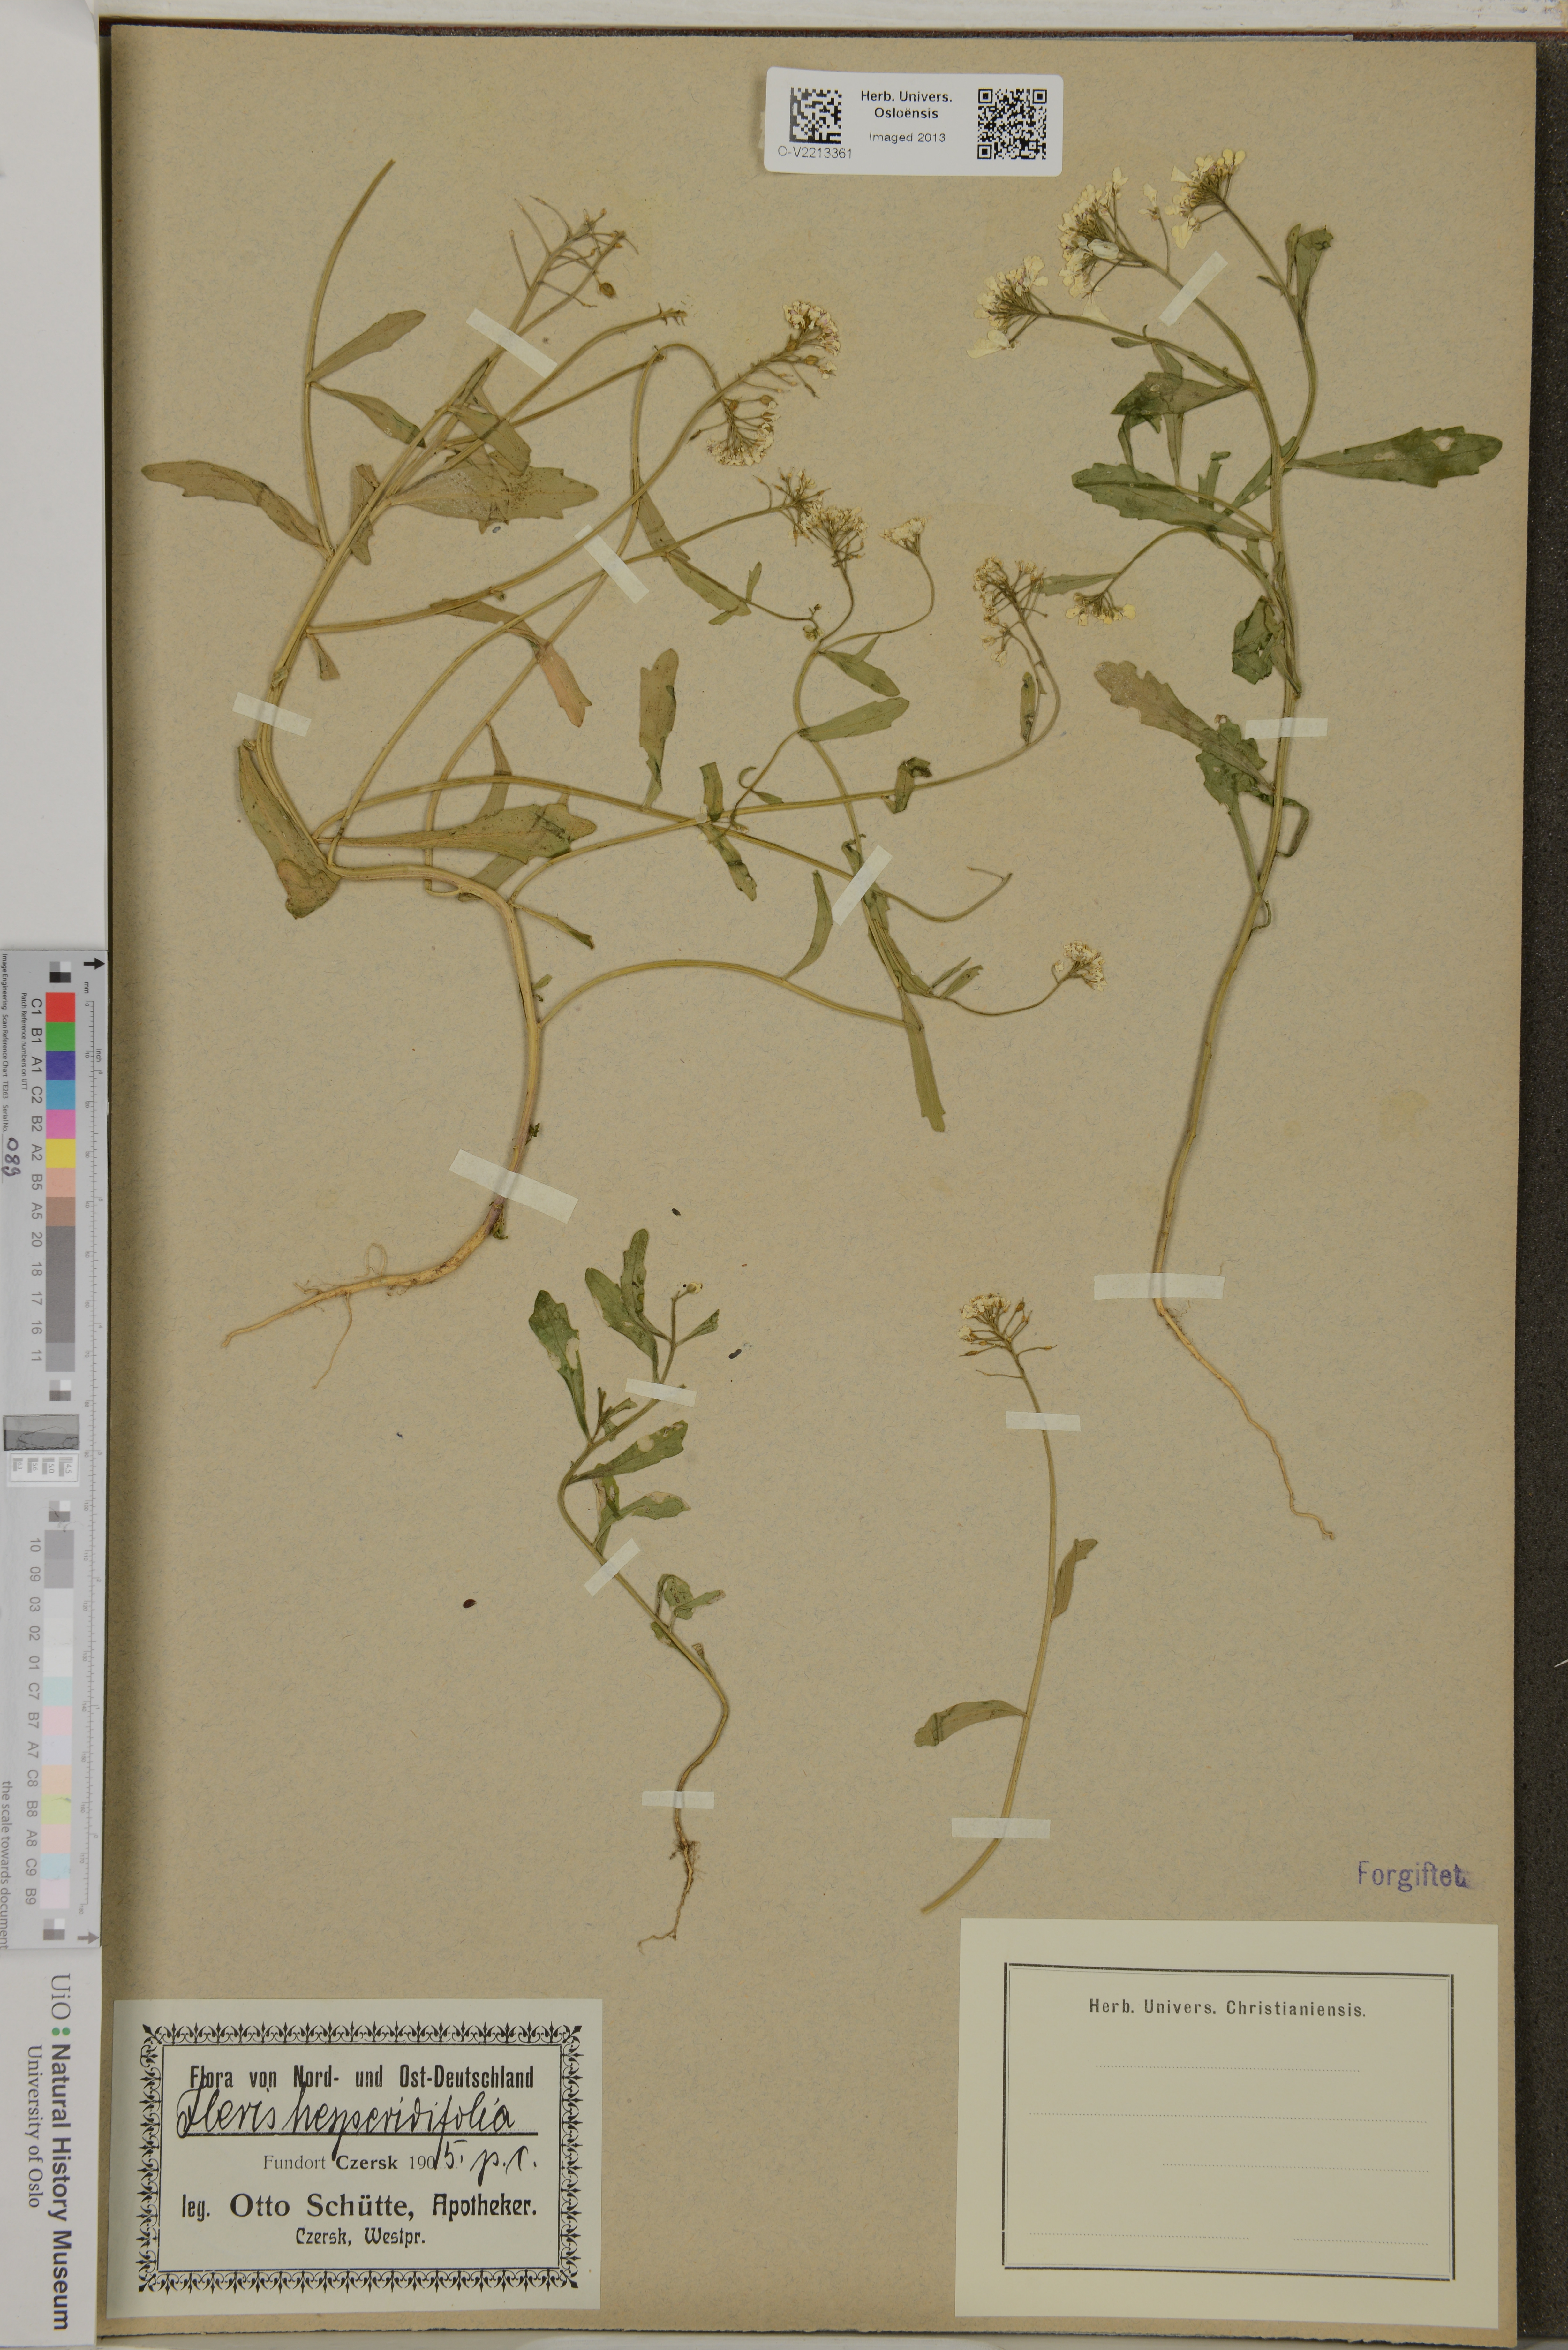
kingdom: Plantae
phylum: Tracheophyta
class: Magnoliopsida
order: Brassicales
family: Brassicaceae
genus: Iberis
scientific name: Iberis
